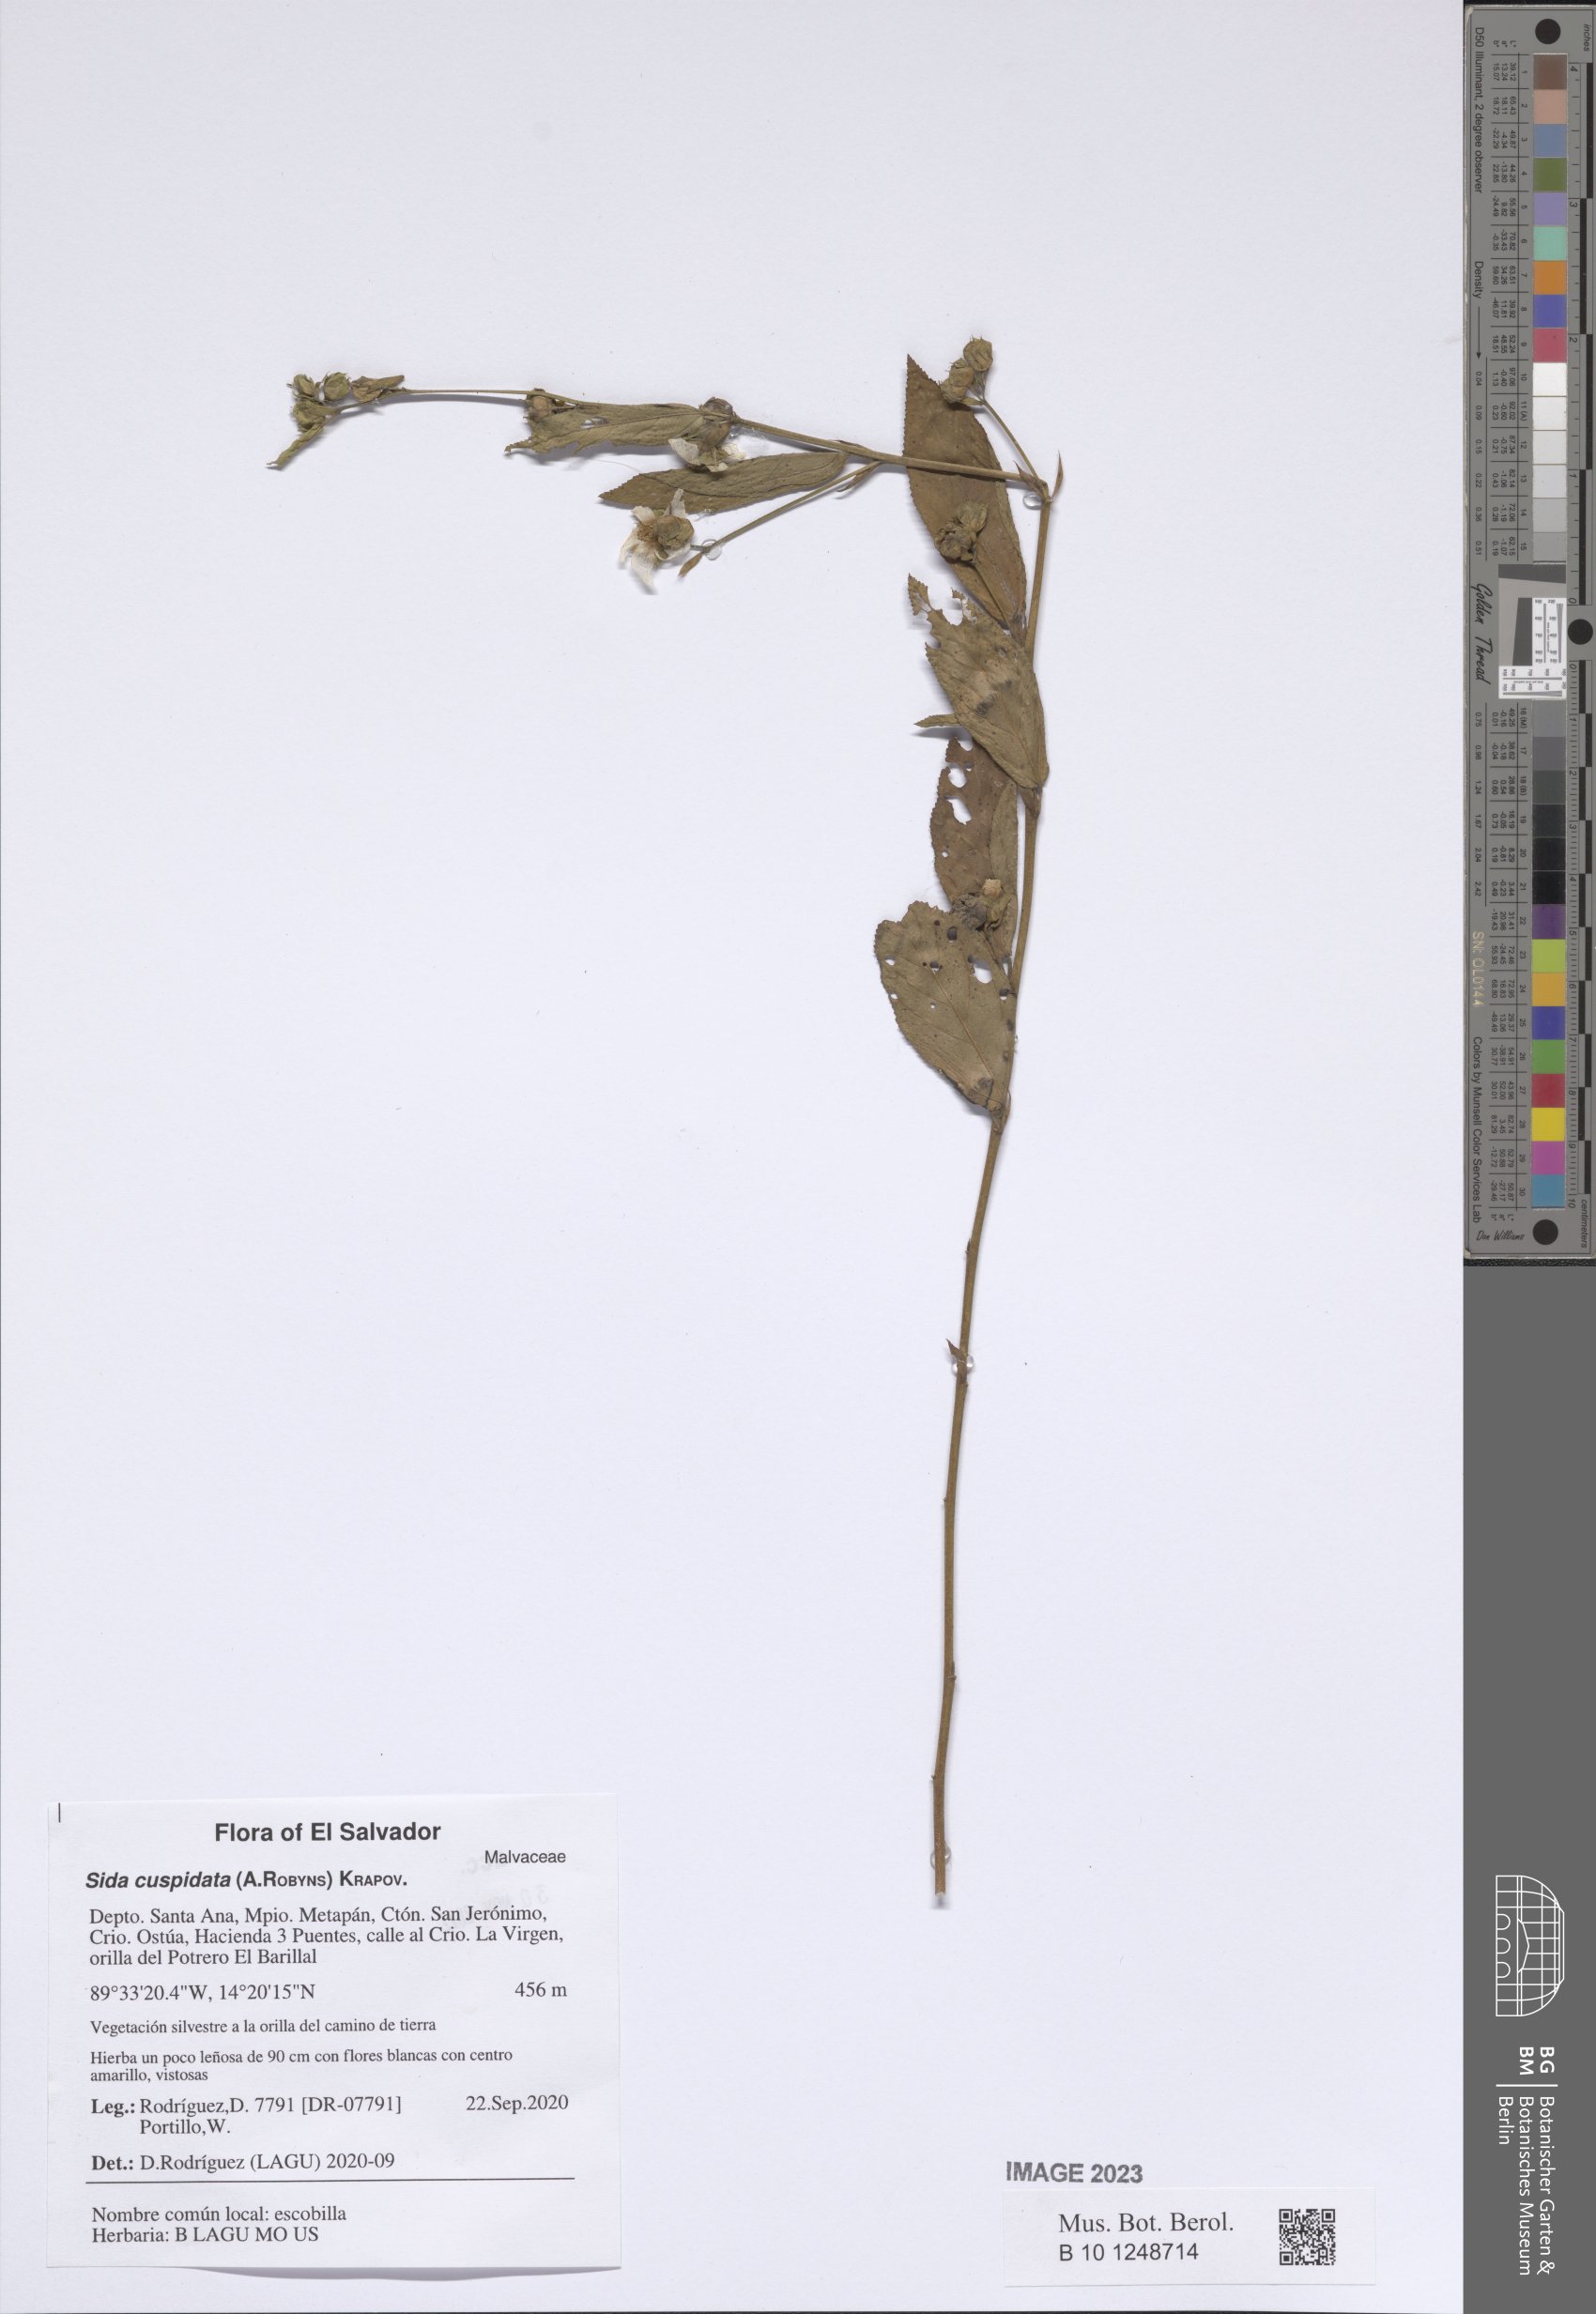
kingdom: Plantae
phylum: Tracheophyta
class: Magnoliopsida
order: Malvales
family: Malvaceae
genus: Sida
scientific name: Sida cuspidata
